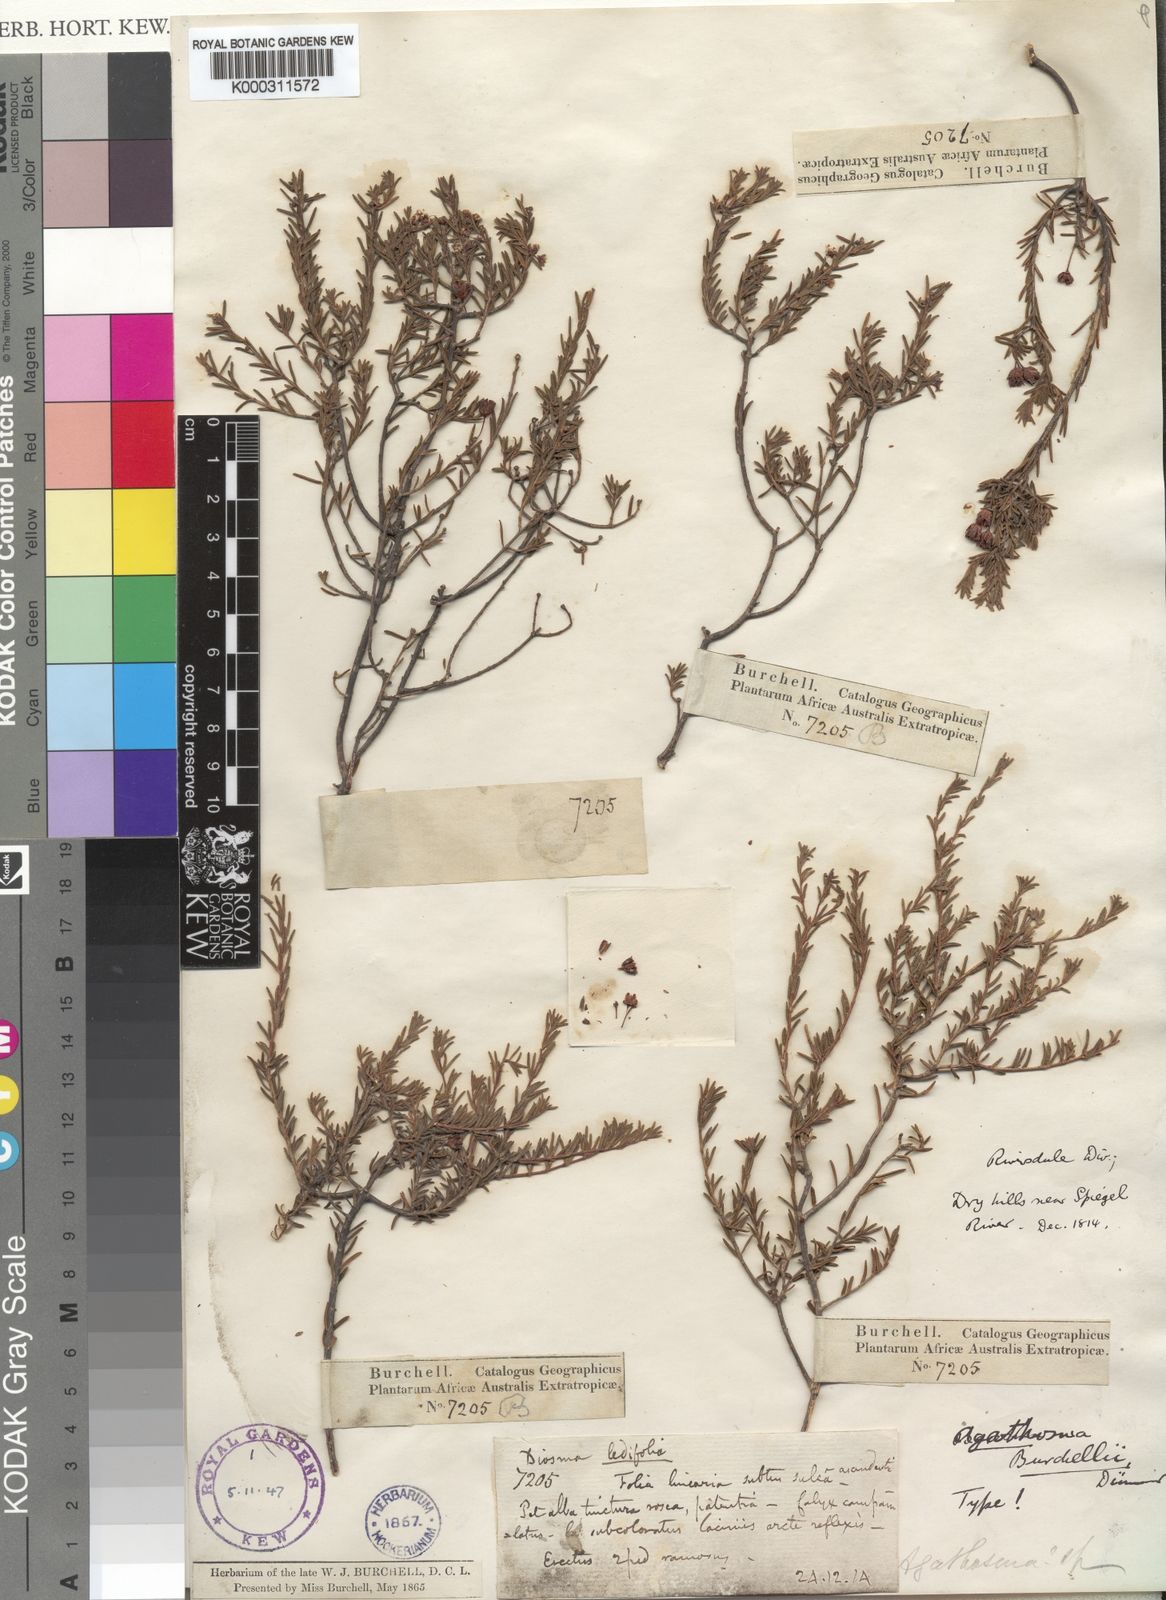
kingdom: Plantae
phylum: Tracheophyta
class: Magnoliopsida
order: Sapindales
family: Rutaceae
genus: Agathosma
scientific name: Agathosma foetidissima
